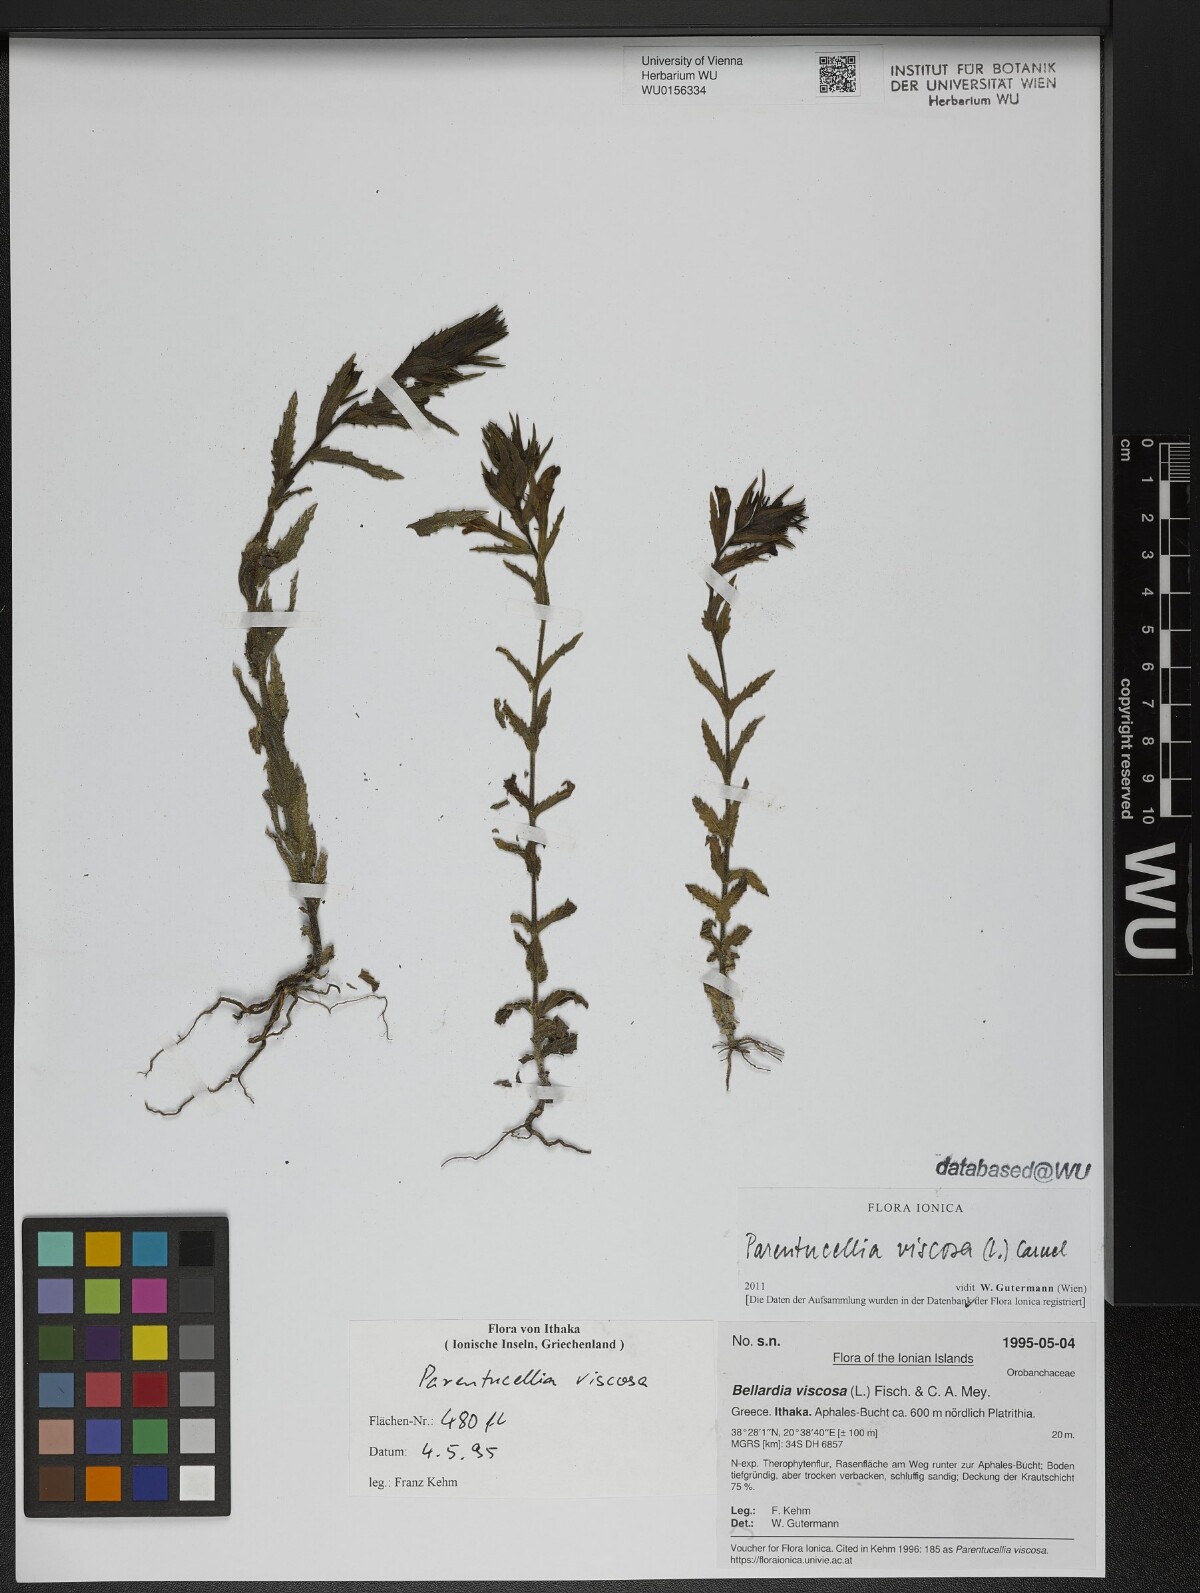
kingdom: Plantae
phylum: Tracheophyta
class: Magnoliopsida
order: Lamiales
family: Orobanchaceae
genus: Bellardia
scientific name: Bellardia viscosa
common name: Sticky parentucellia
